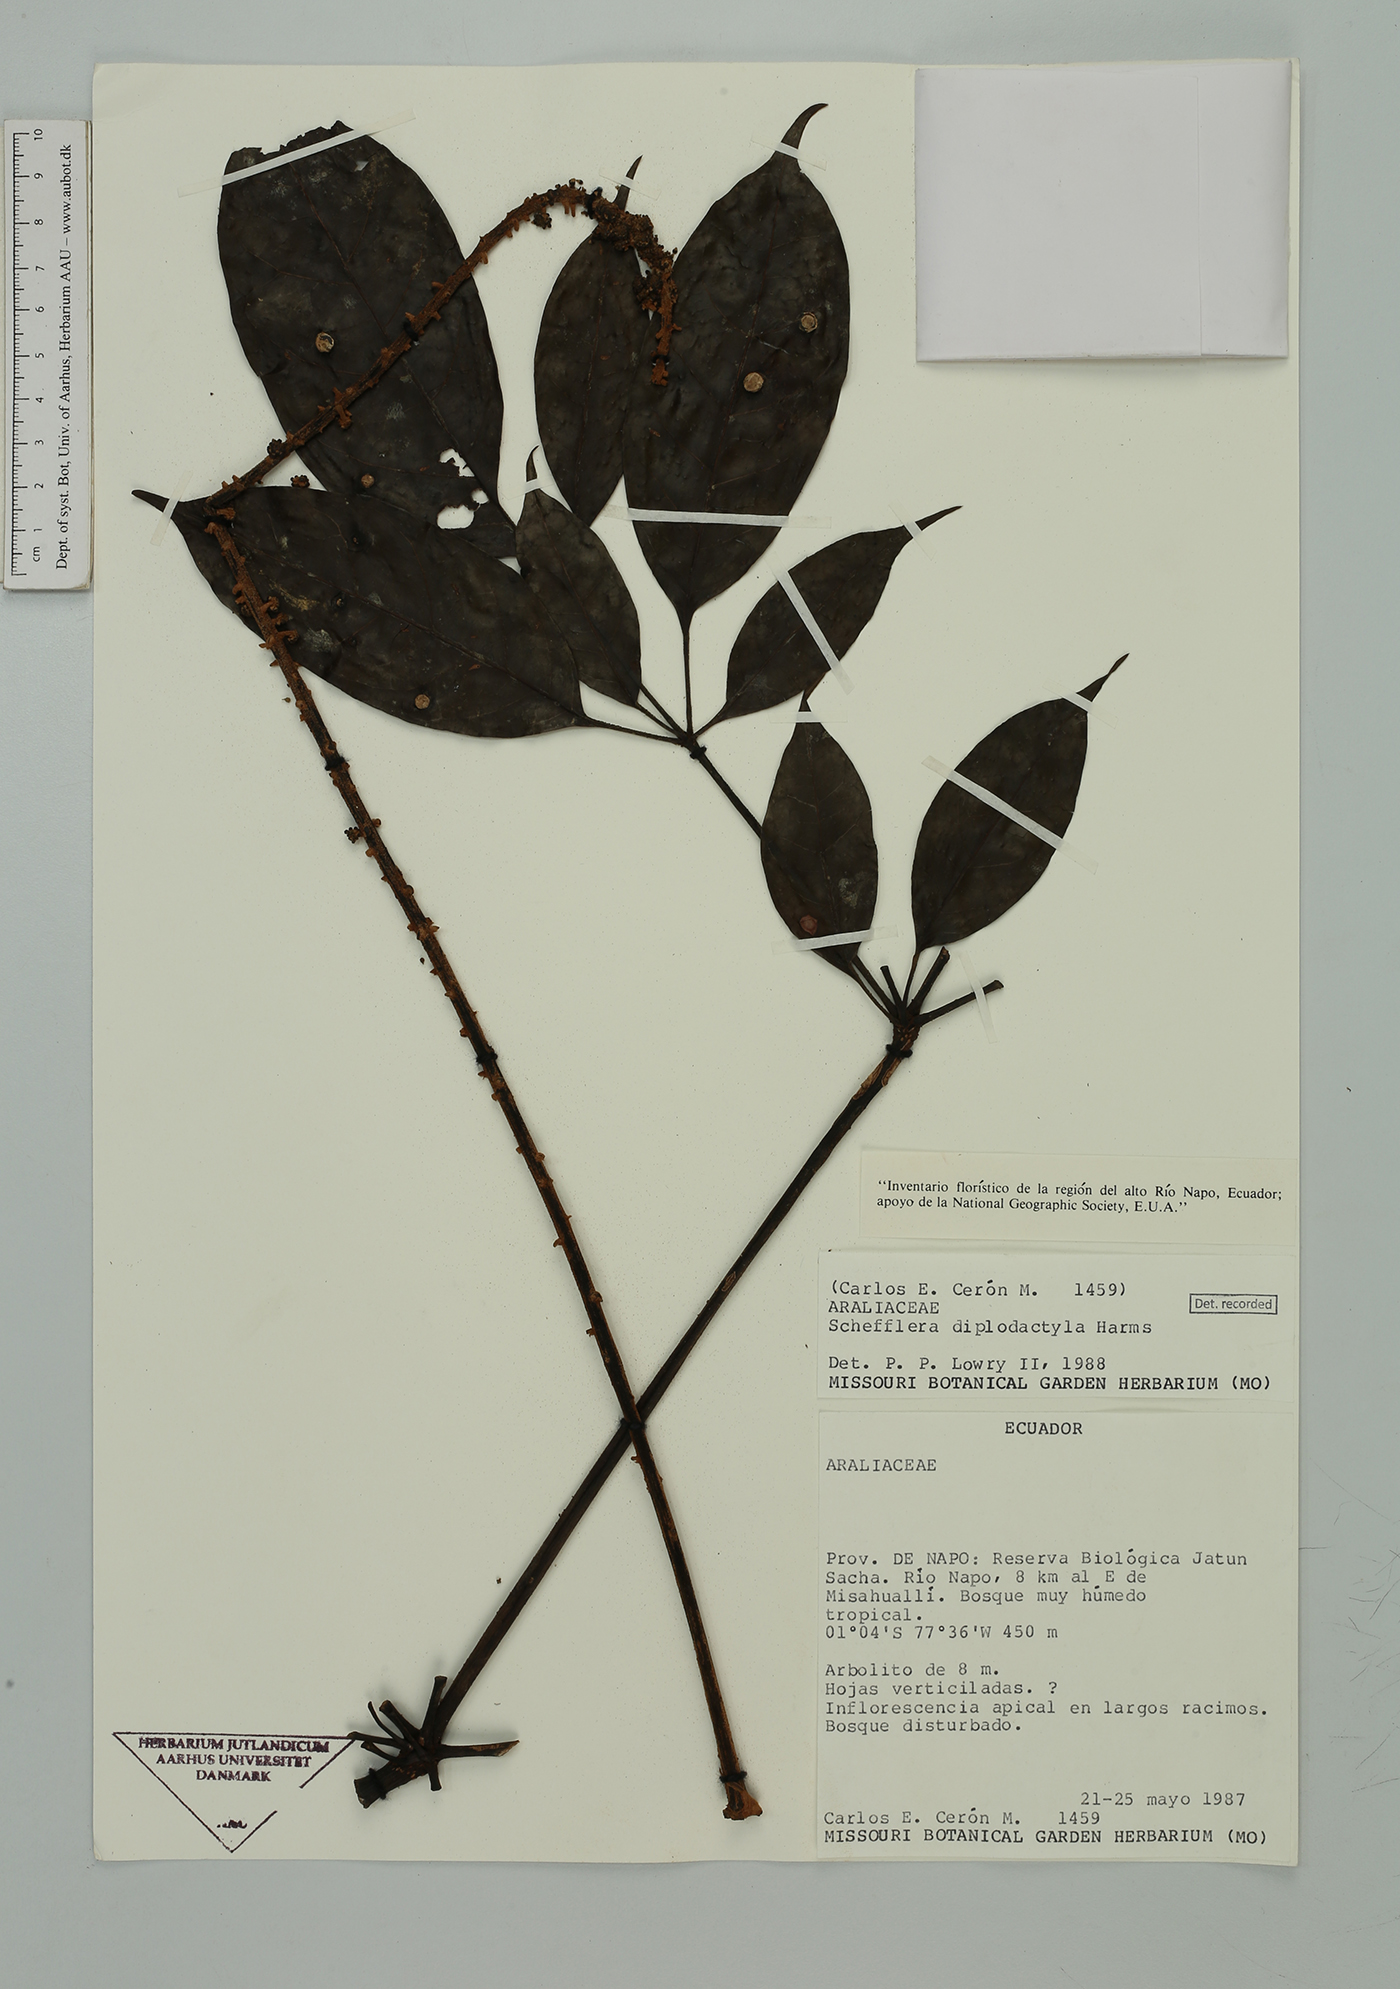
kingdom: Plantae
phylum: Tracheophyta
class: Magnoliopsida
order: Apiales
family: Araliaceae
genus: Sciodaphyllum
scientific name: Sciodaphyllum diplodactylum
